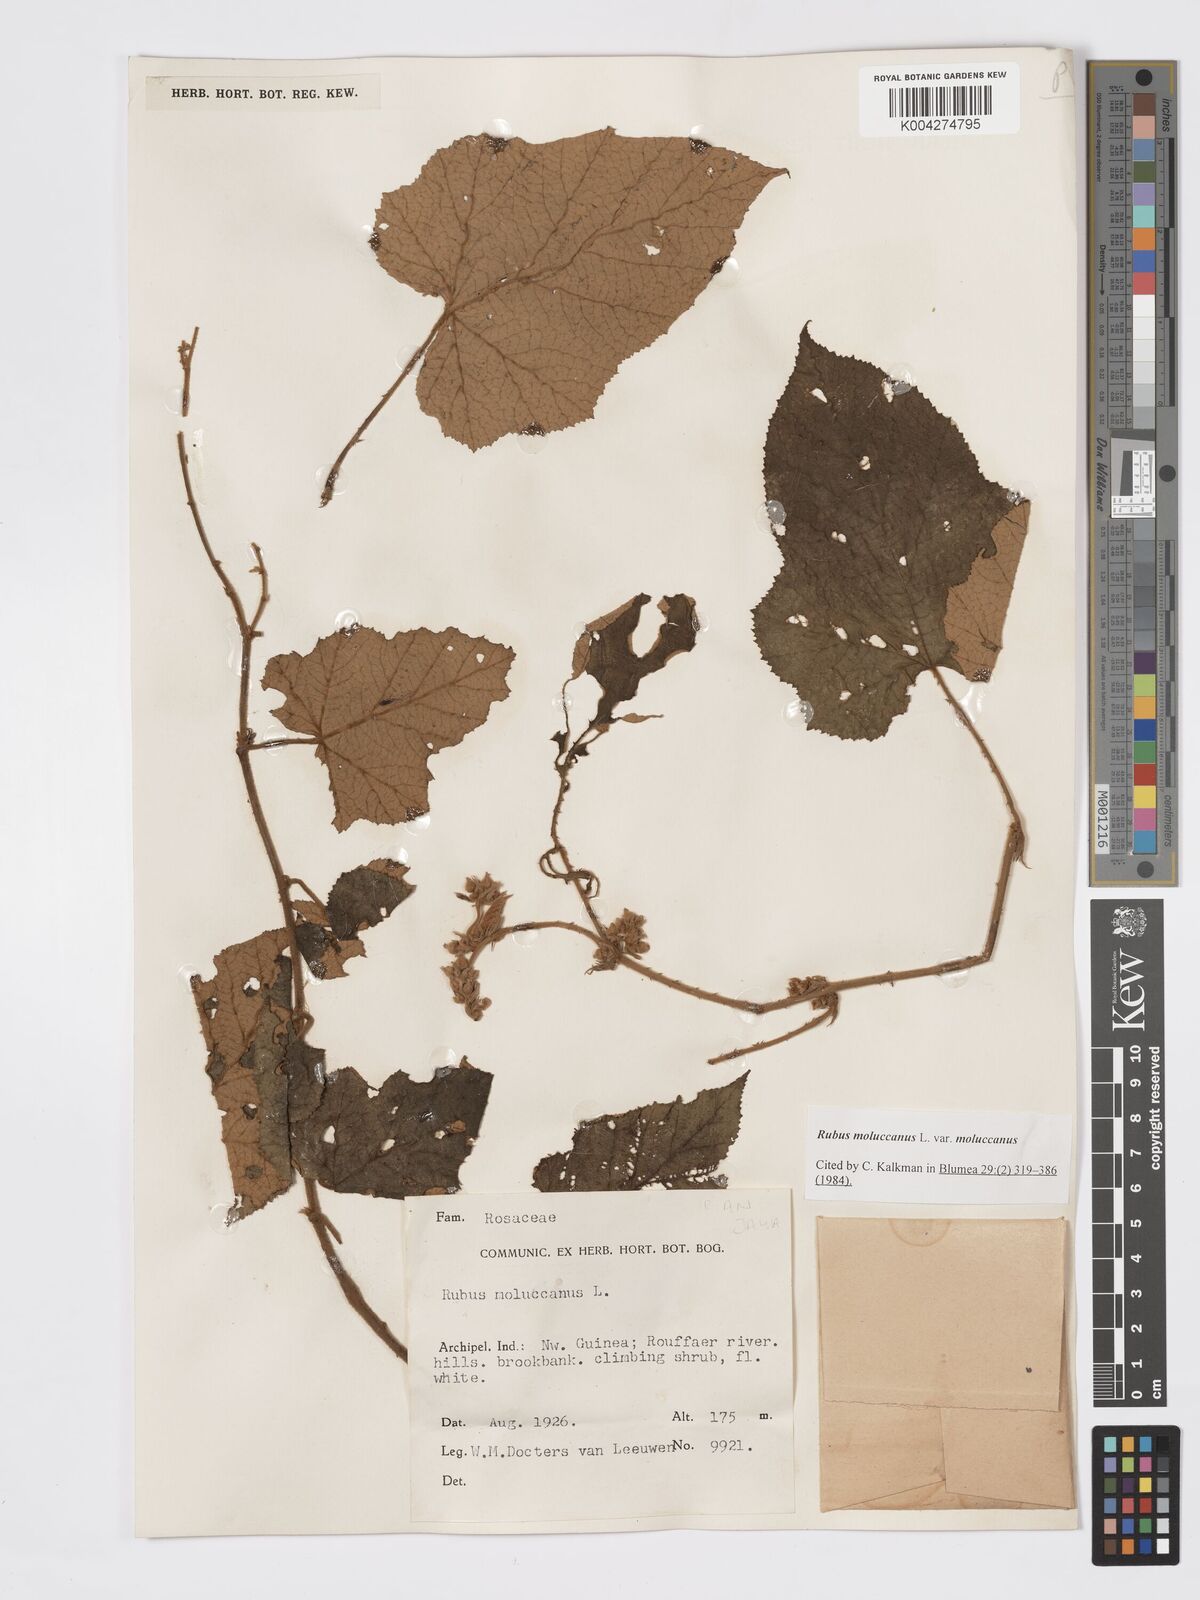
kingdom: Plantae
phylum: Tracheophyta
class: Magnoliopsida
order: Rosales
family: Rosaceae
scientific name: Rosaceae
